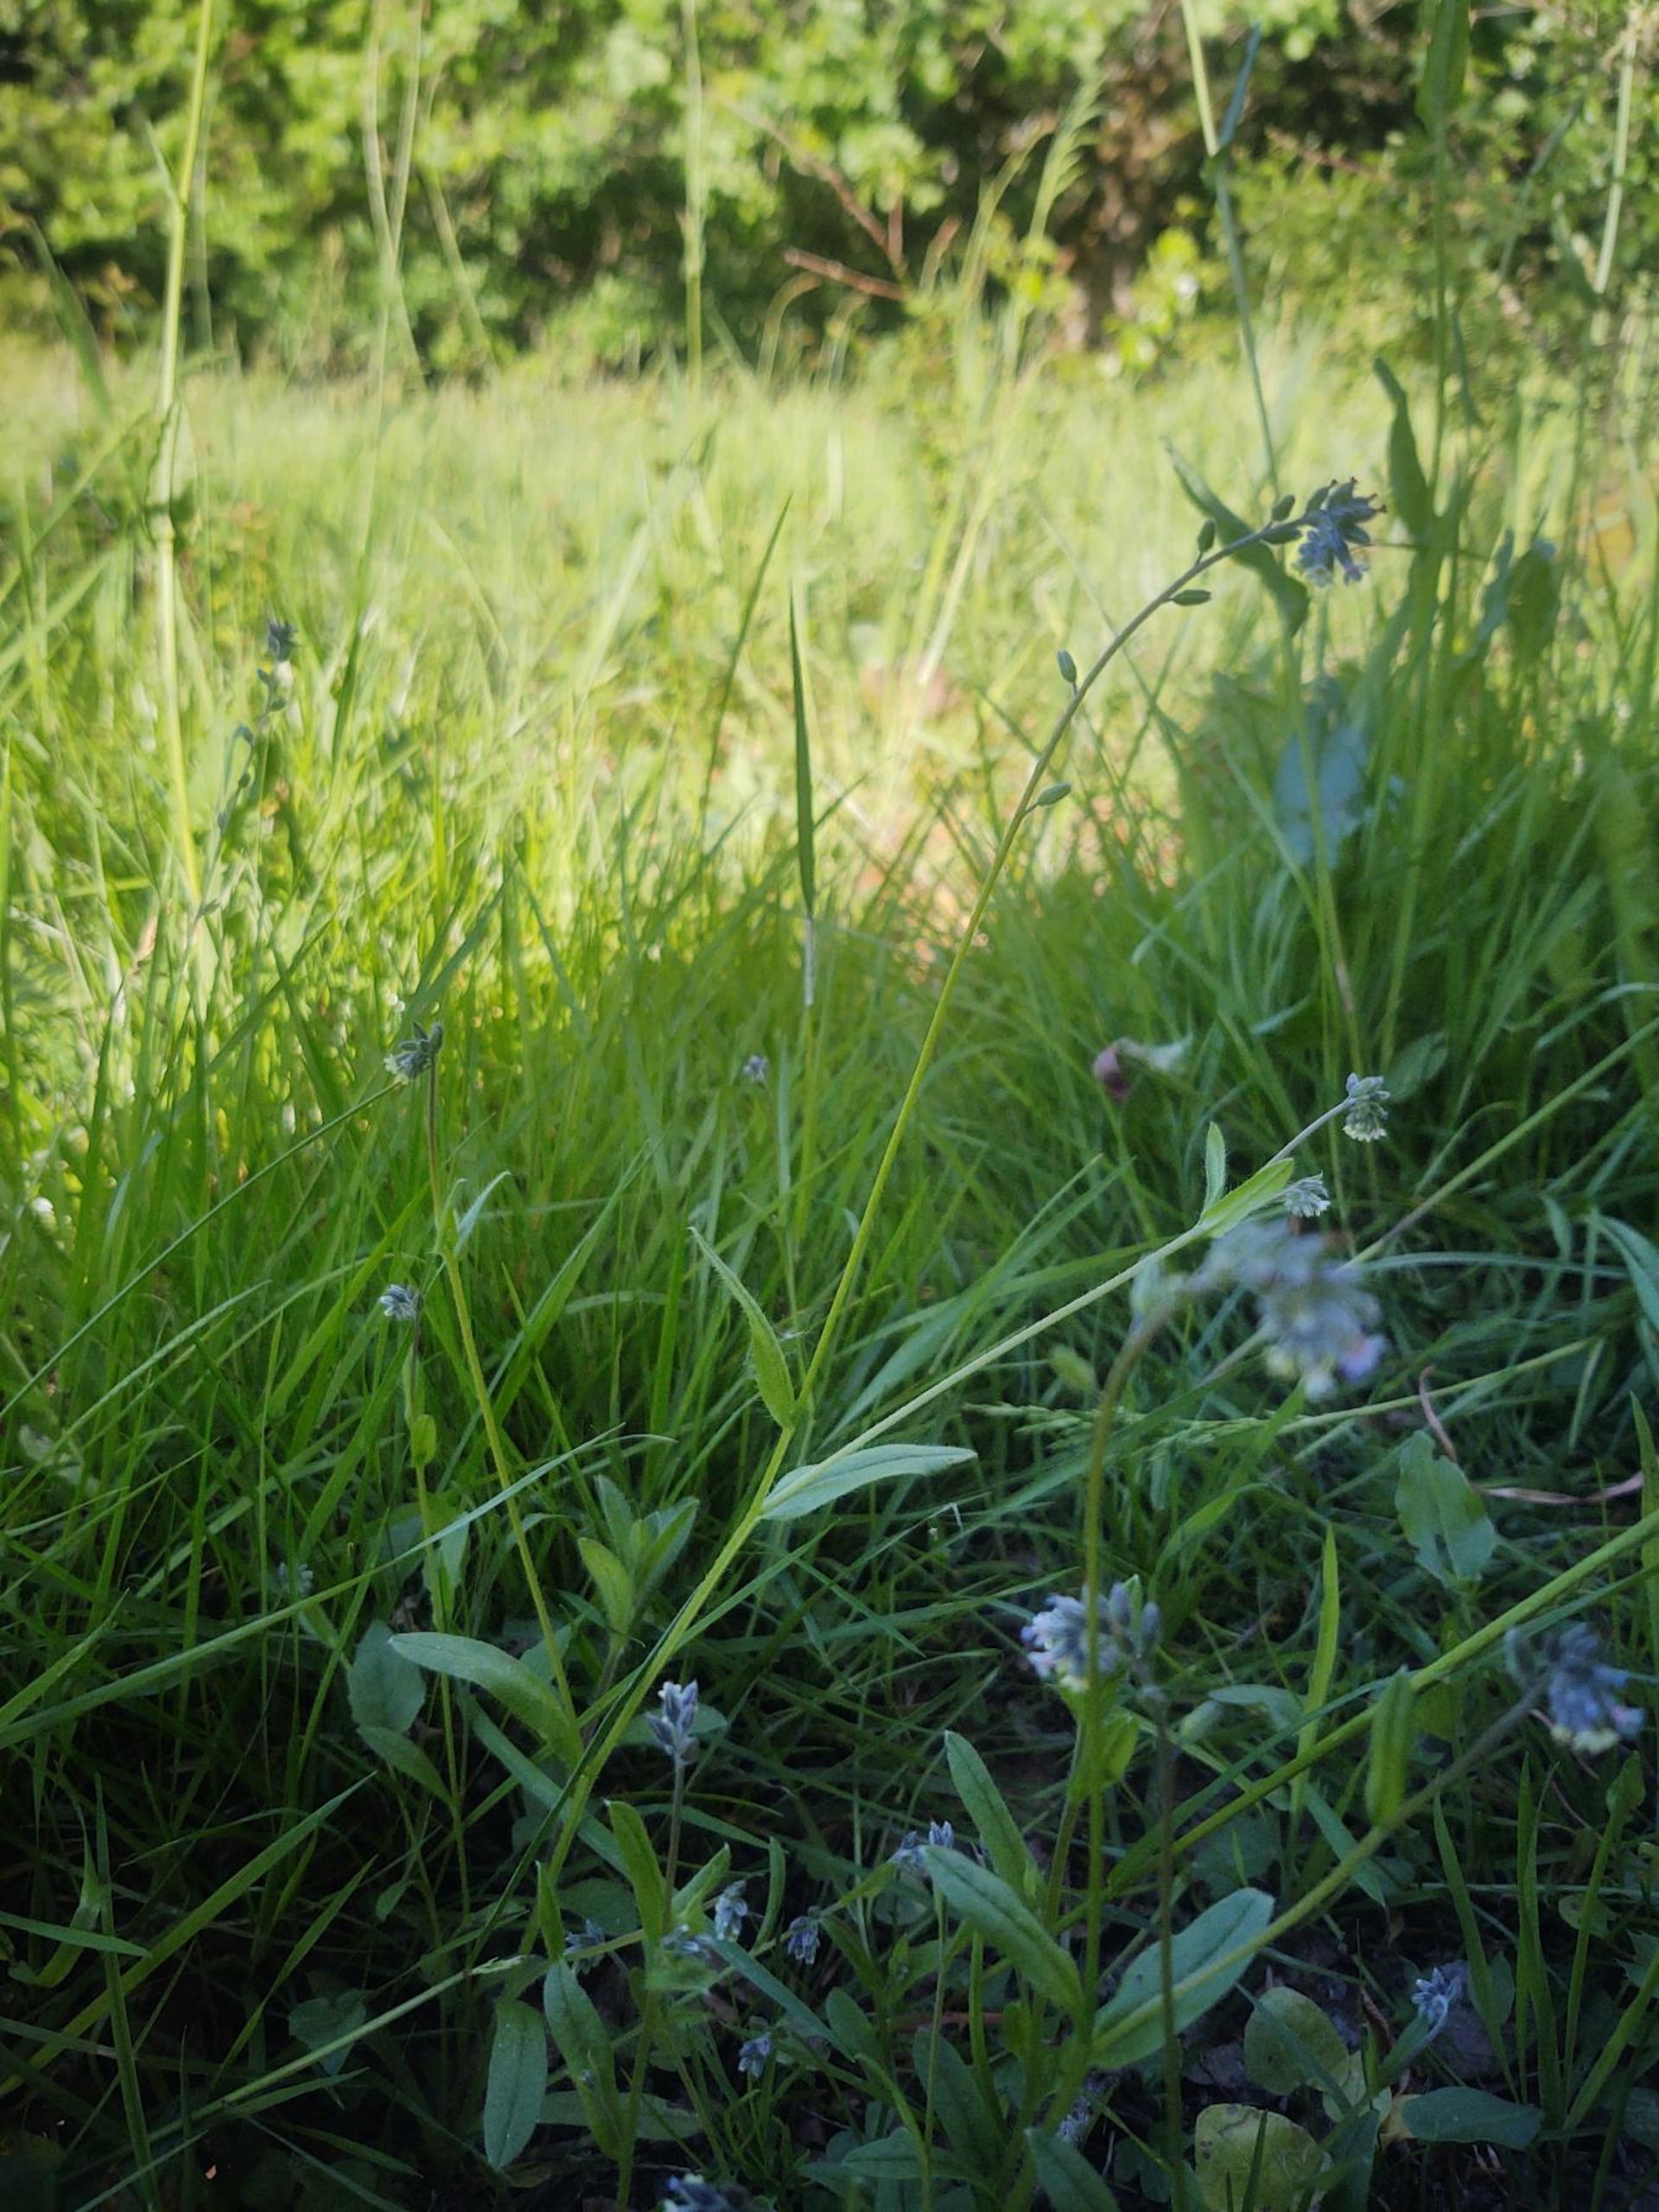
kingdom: Plantae
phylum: Tracheophyta
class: Magnoliopsida
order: Boraginales
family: Boraginaceae
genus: Myosotis
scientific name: Myosotis discolor
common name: Forskelligfarvet forglemmigej
